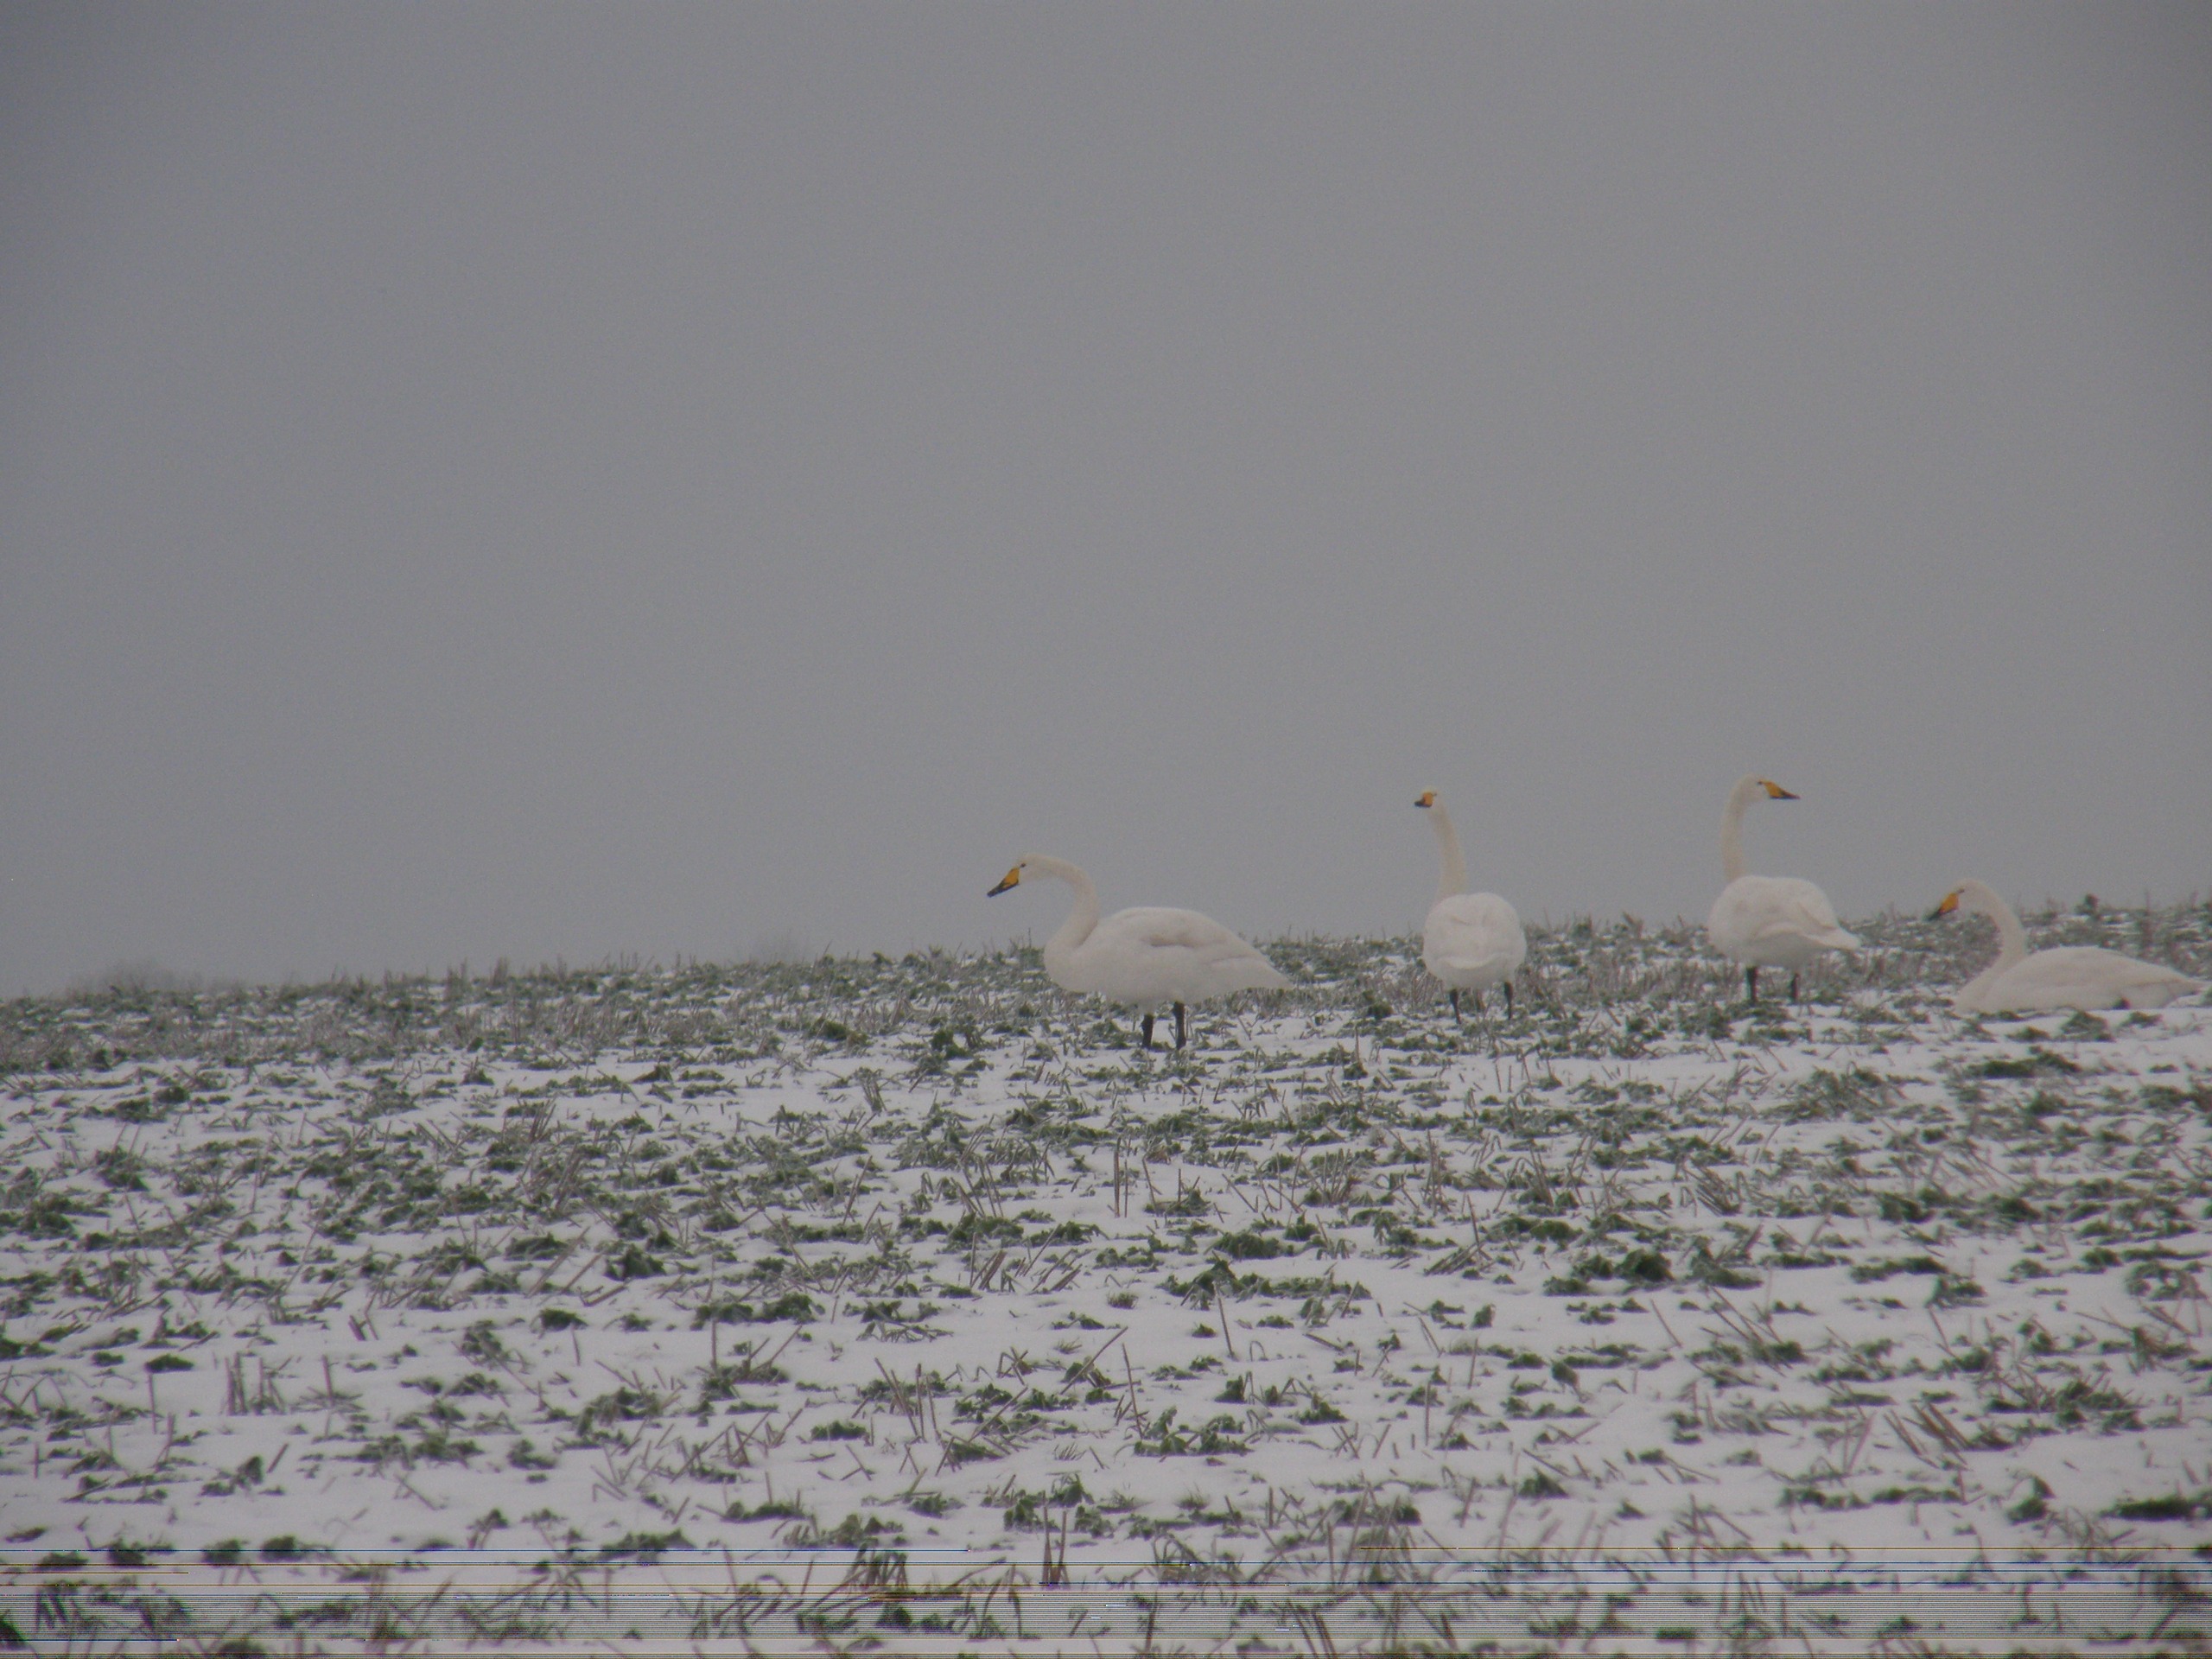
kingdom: Animalia
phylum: Chordata
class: Aves
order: Anseriformes
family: Anatidae
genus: Cygnus
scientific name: Cygnus cygnus
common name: Sangsvane
